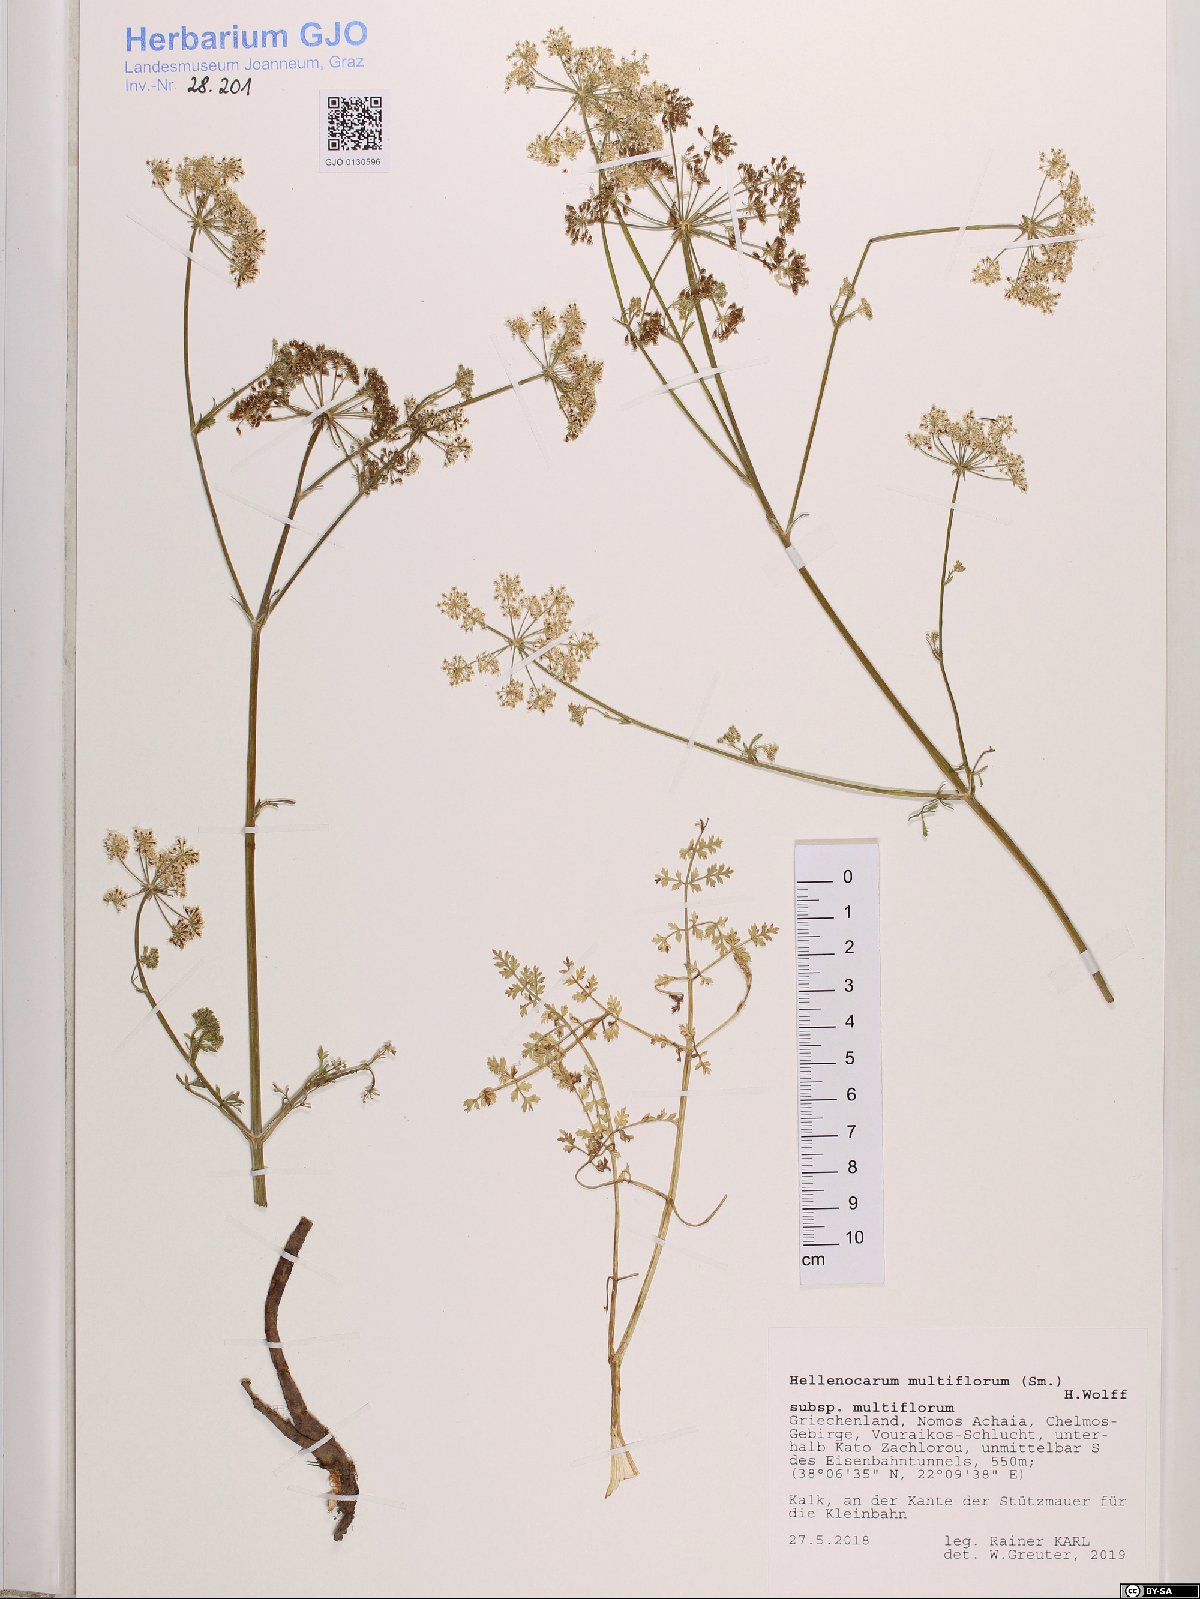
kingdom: Plantae
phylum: Tracheophyta
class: Magnoliopsida
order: Apiales
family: Apiaceae
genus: Hellenocarum
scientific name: Hellenocarum multiflorum
